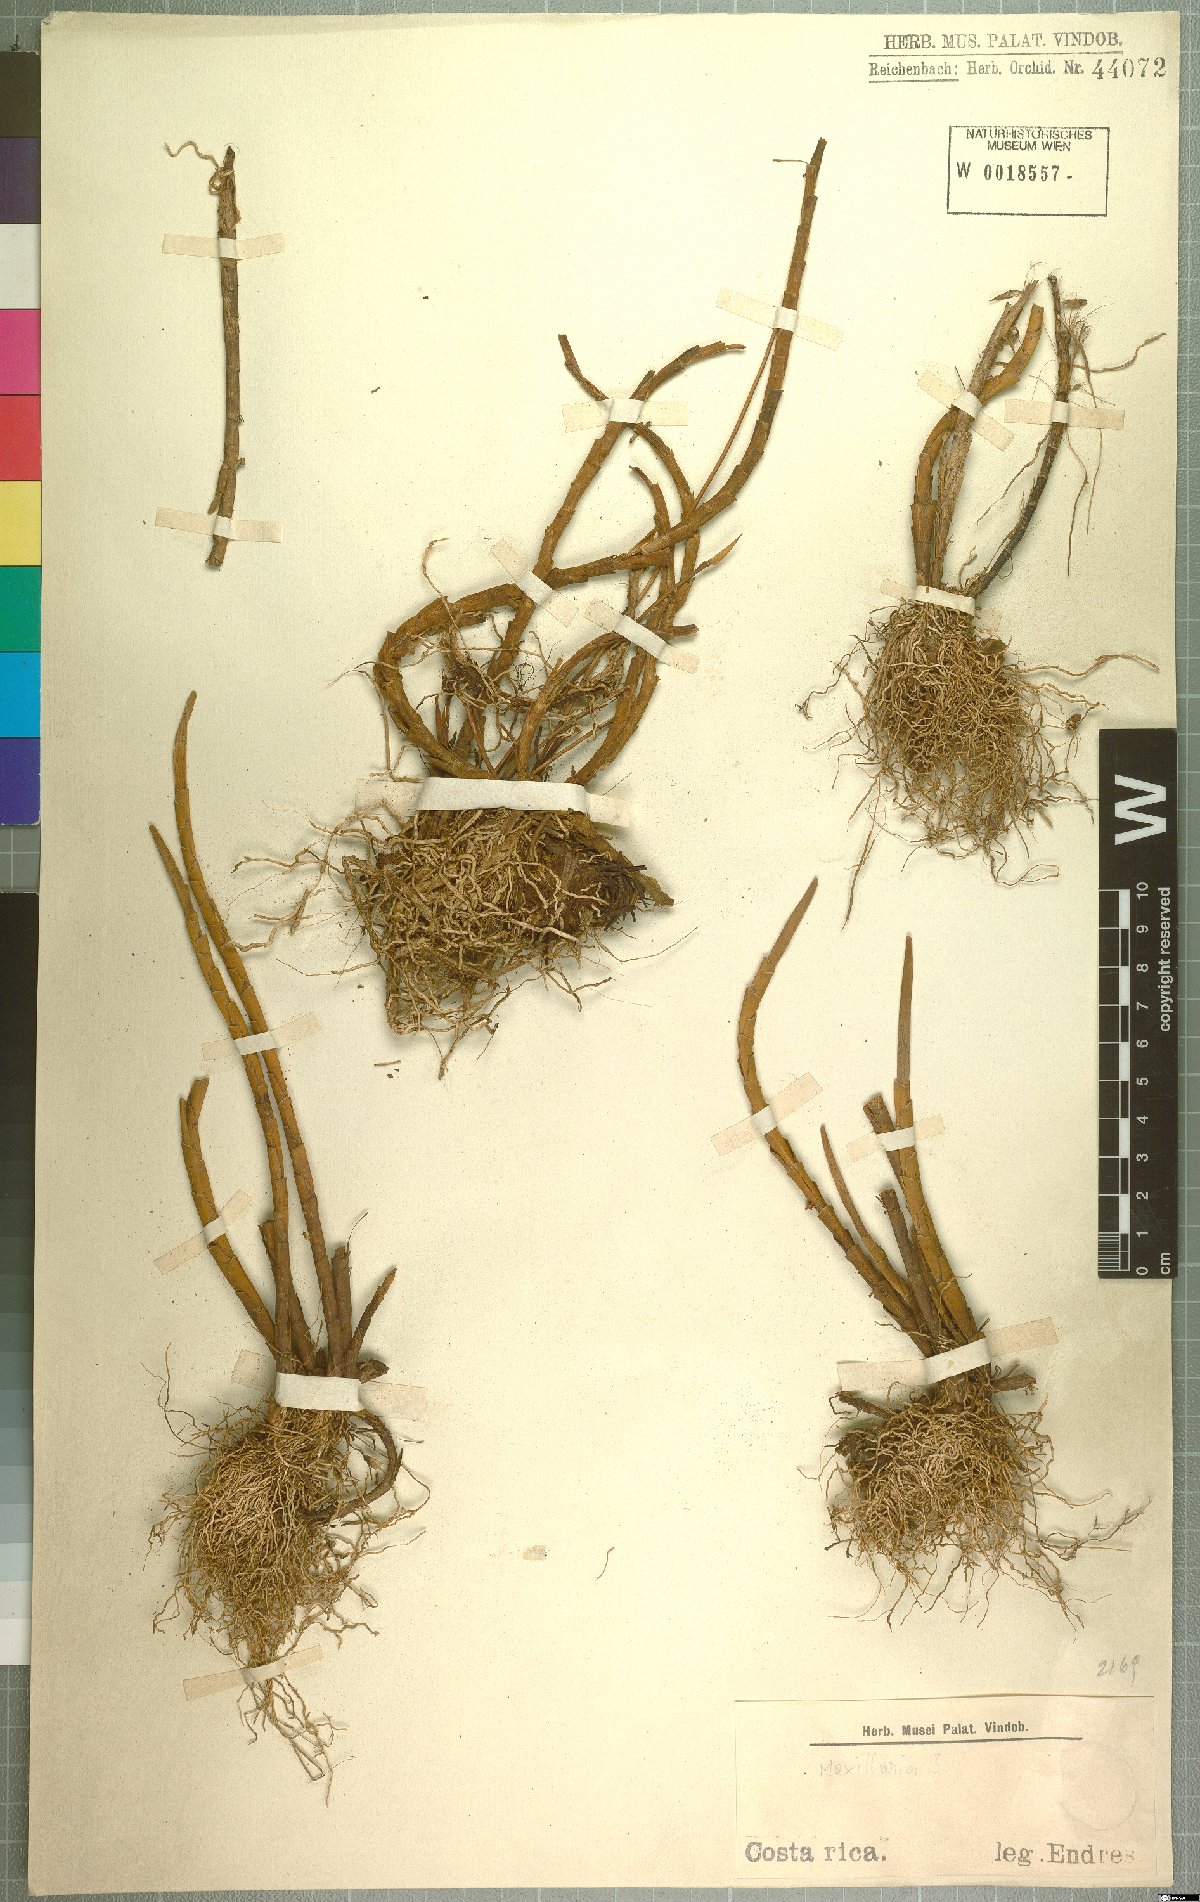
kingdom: Plantae
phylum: Tracheophyta
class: Liliopsida
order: Asparagales
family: Orchidaceae
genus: Maxillaria
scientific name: Maxillaria
